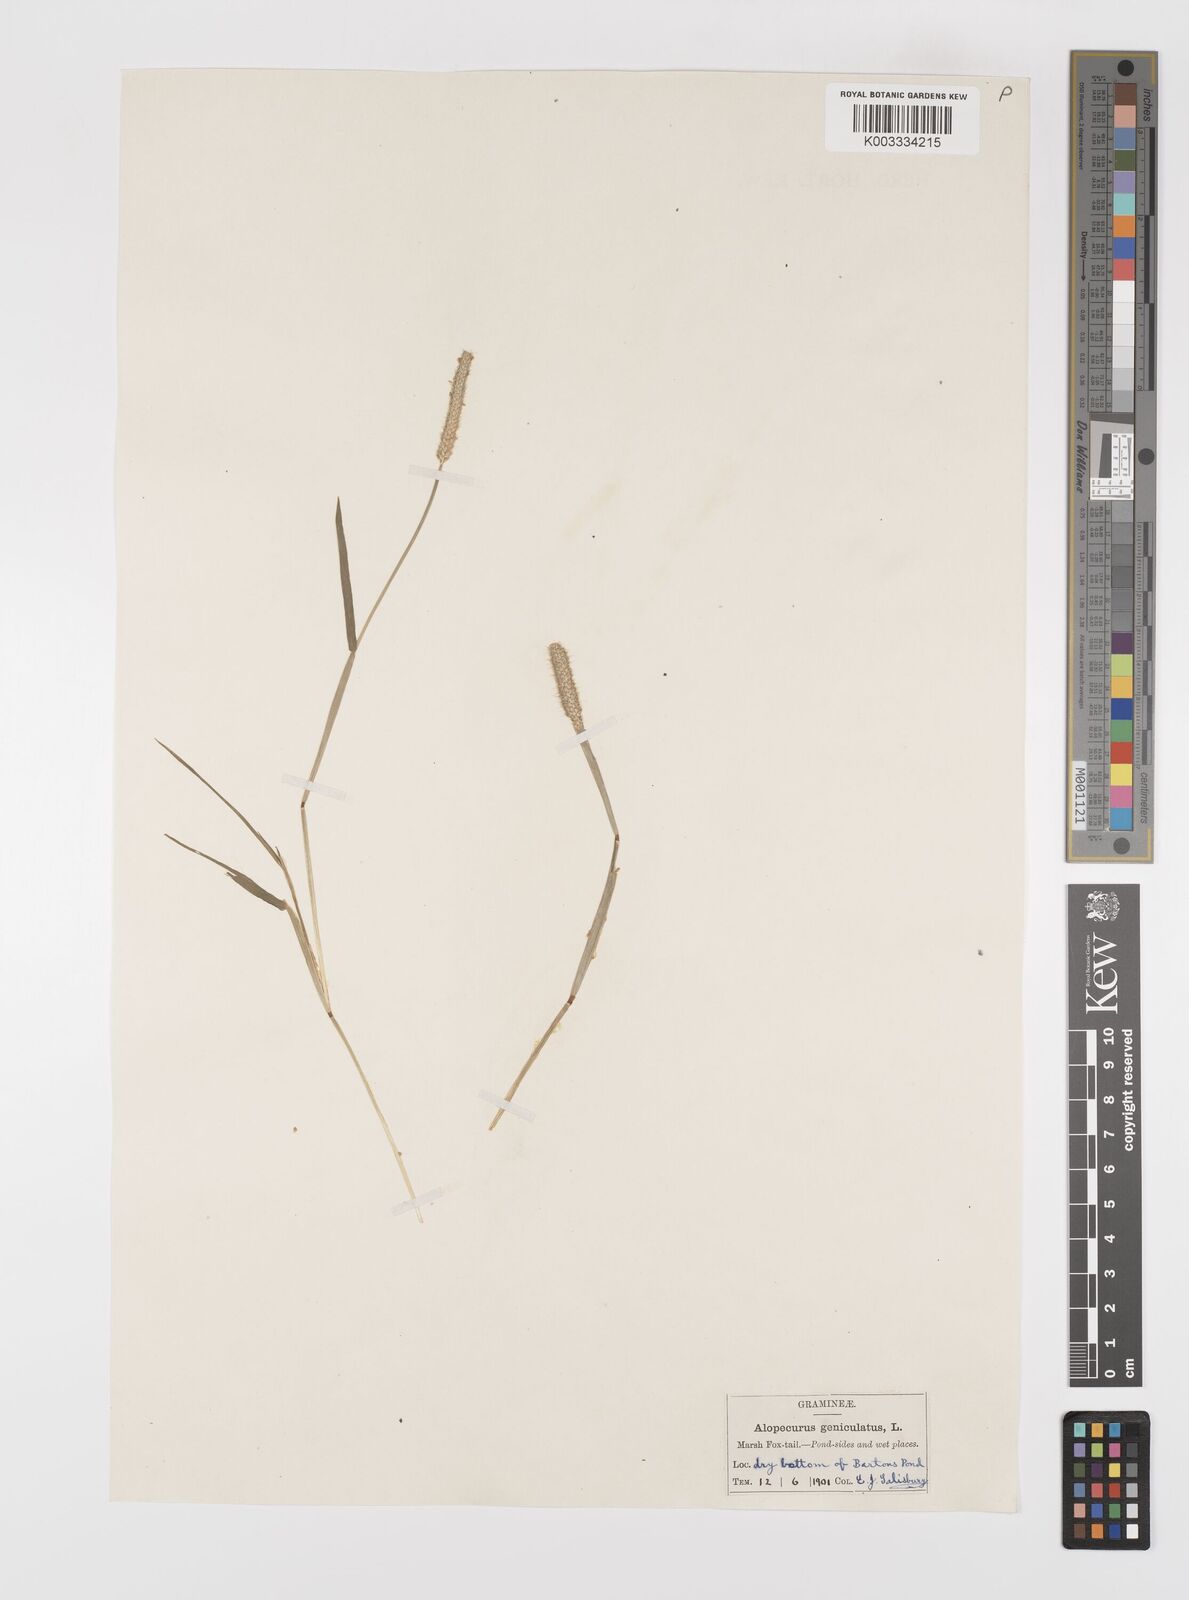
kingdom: Plantae
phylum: Tracheophyta
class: Liliopsida
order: Poales
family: Poaceae
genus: Alopecurus
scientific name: Alopecurus geniculatus
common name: Water foxtail
